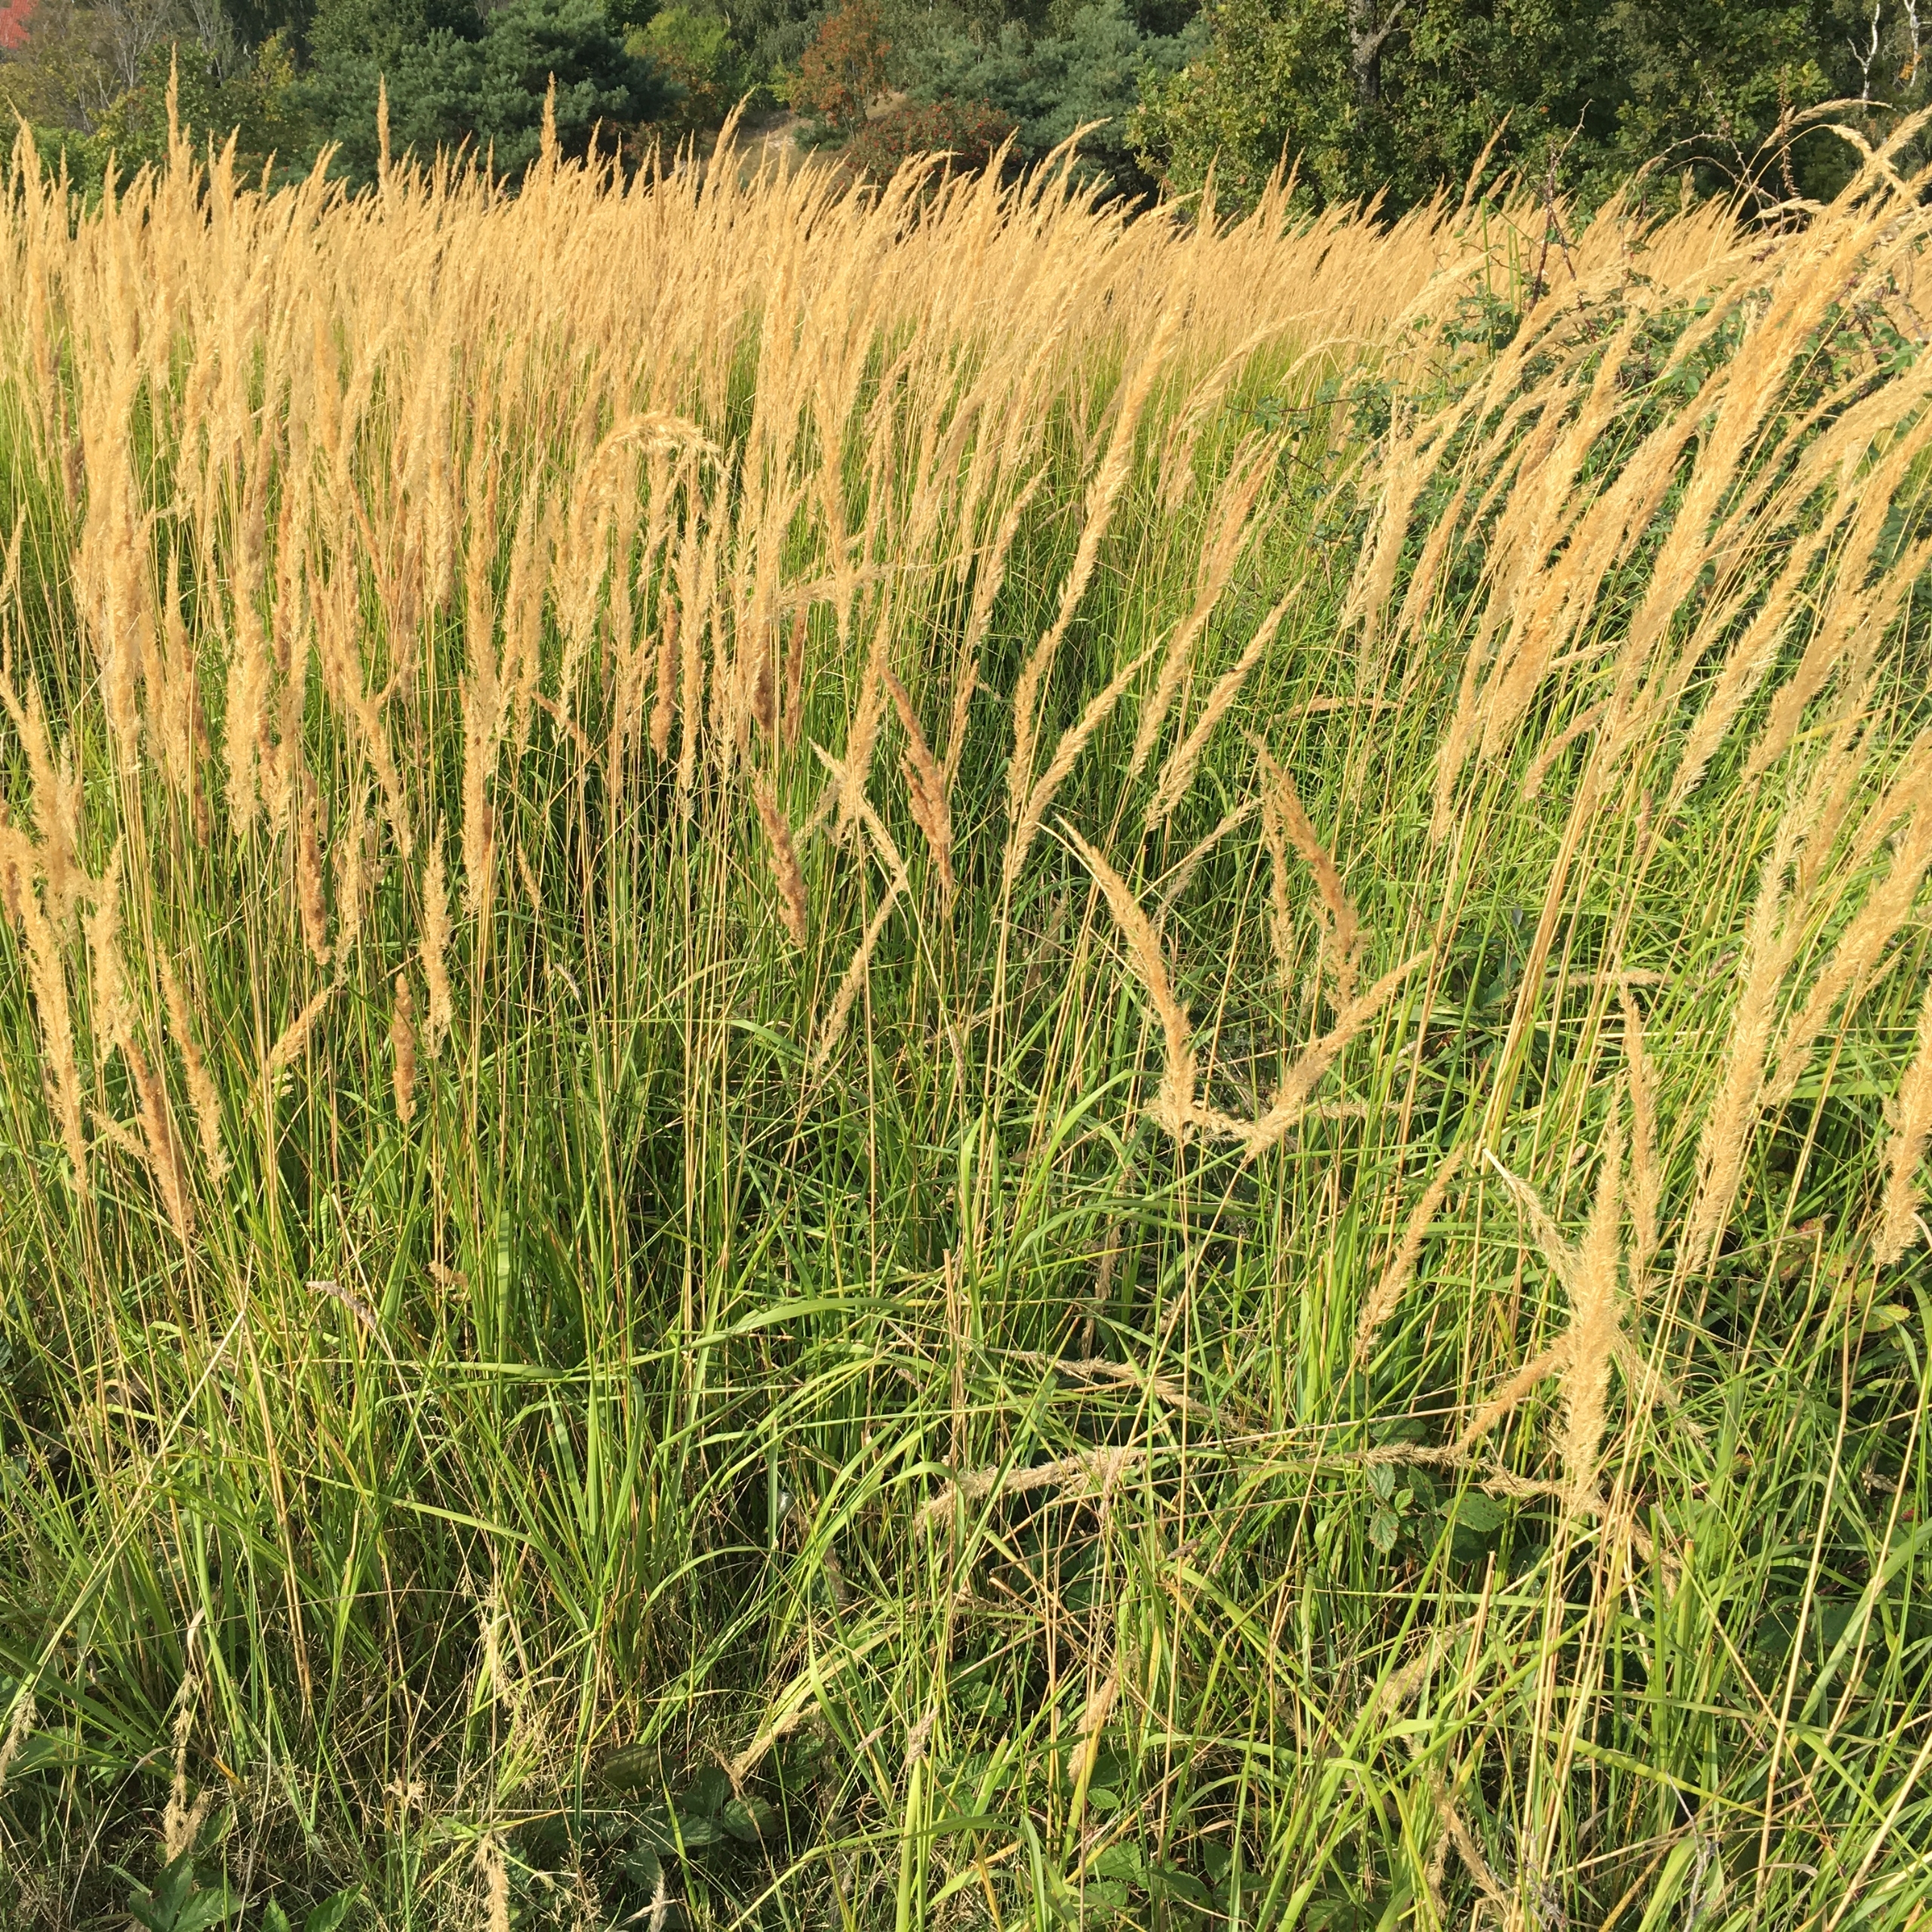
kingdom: Plantae
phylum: Tracheophyta
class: Liliopsida
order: Poales
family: Poaceae
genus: Calamagrostis
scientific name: Calamagrostis epigejos
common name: Bjerg-rørhvene
